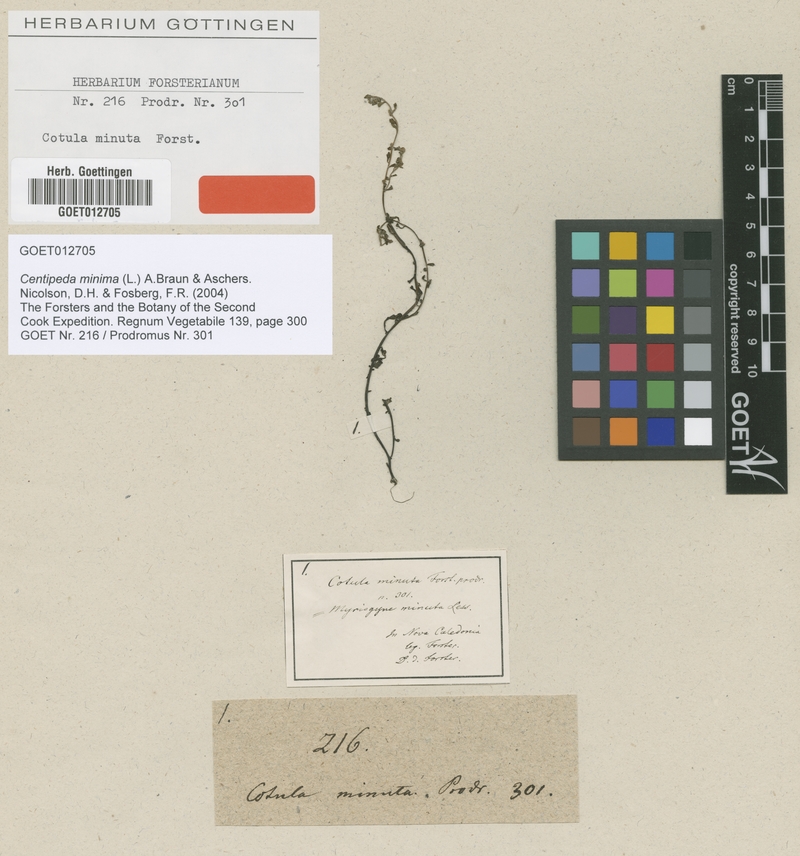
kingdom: Plantae
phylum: Tracheophyta
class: Magnoliopsida
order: Asterales
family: Asteraceae
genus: Centipeda
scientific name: Centipeda minima
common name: Spreading sneezeweed
